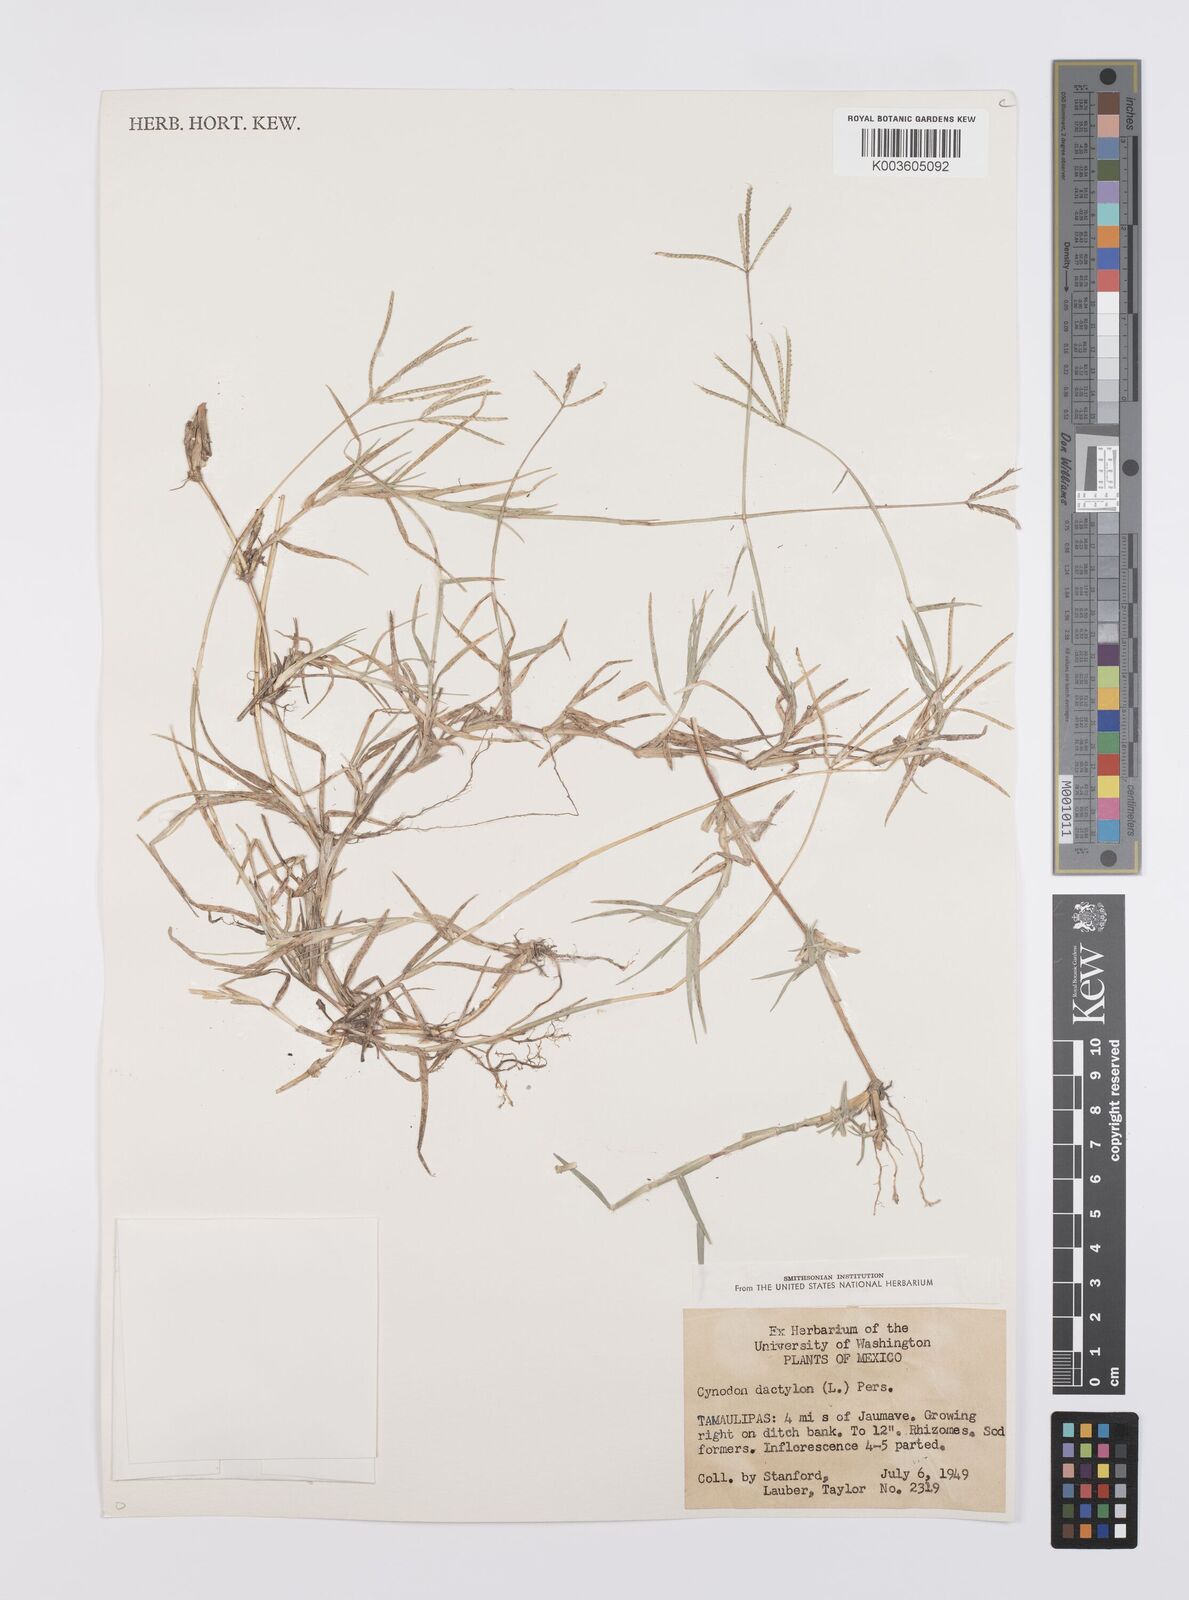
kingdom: Plantae
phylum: Tracheophyta
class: Liliopsida
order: Poales
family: Poaceae
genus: Cynodon
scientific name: Cynodon dactylon
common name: Bermuda grass
